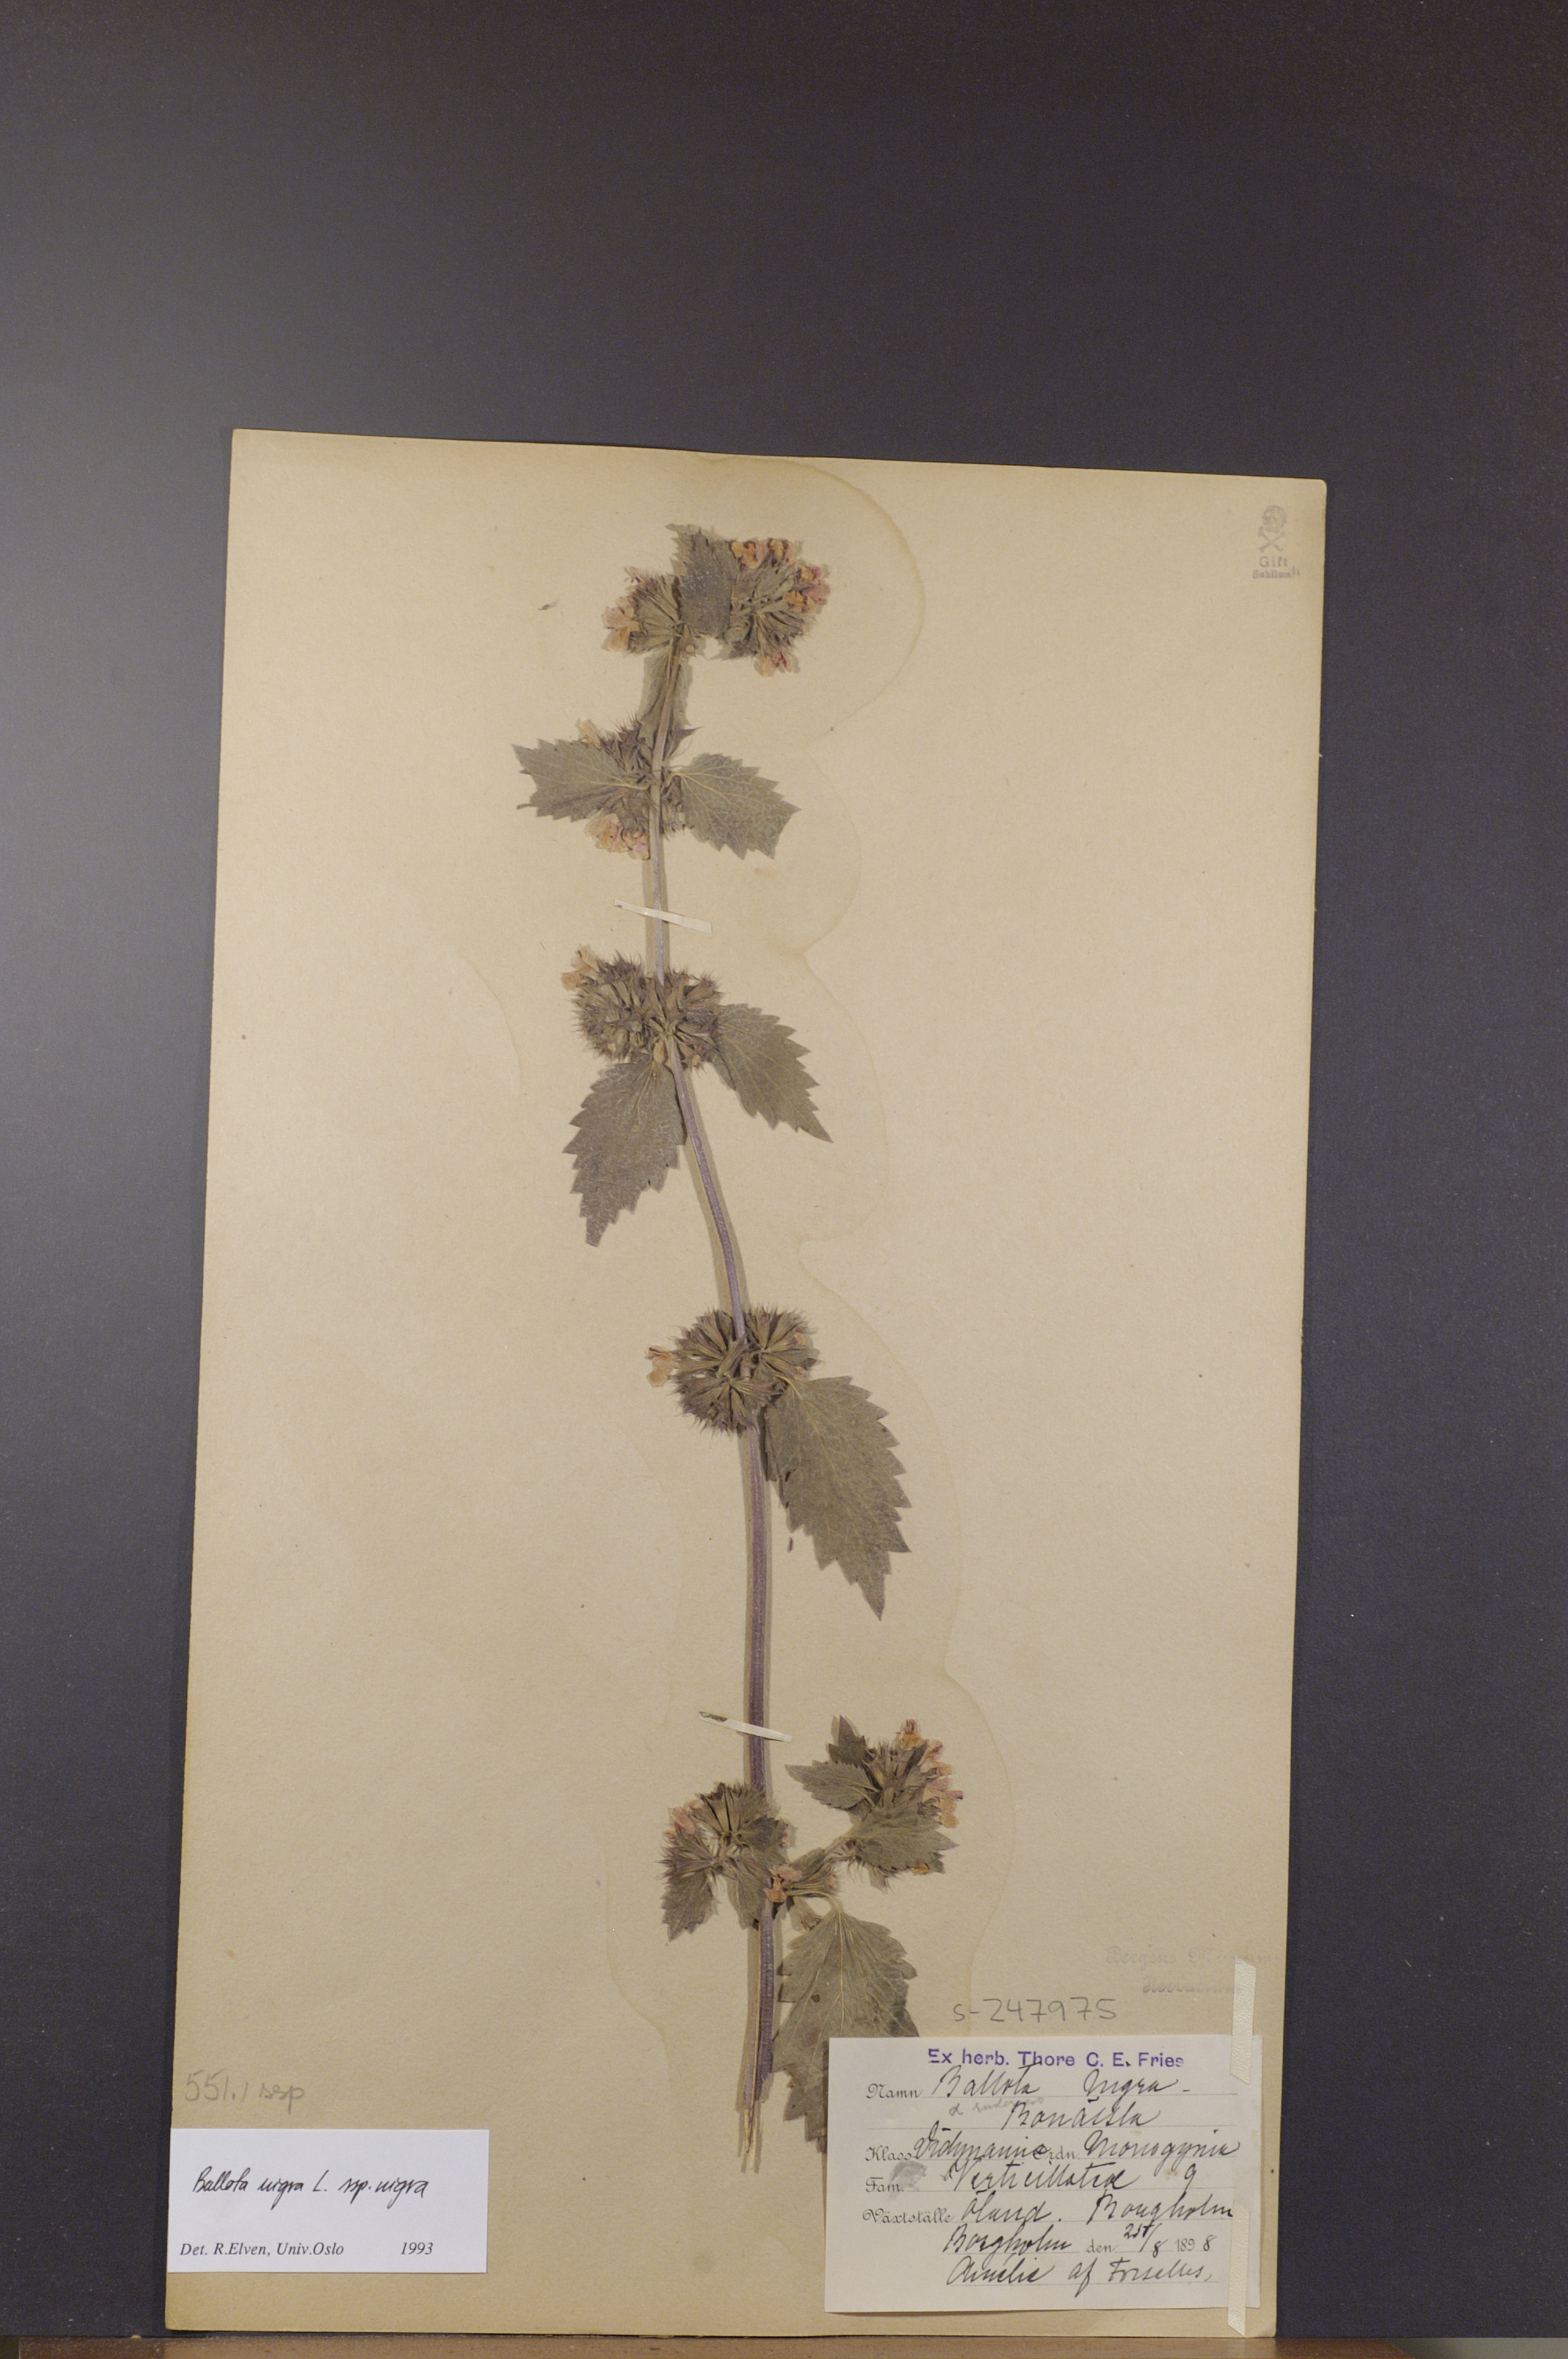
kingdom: Plantae
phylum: Tracheophyta
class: Magnoliopsida
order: Lamiales
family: Lamiaceae
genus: Ballota
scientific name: Ballota nigra
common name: Black horehound
